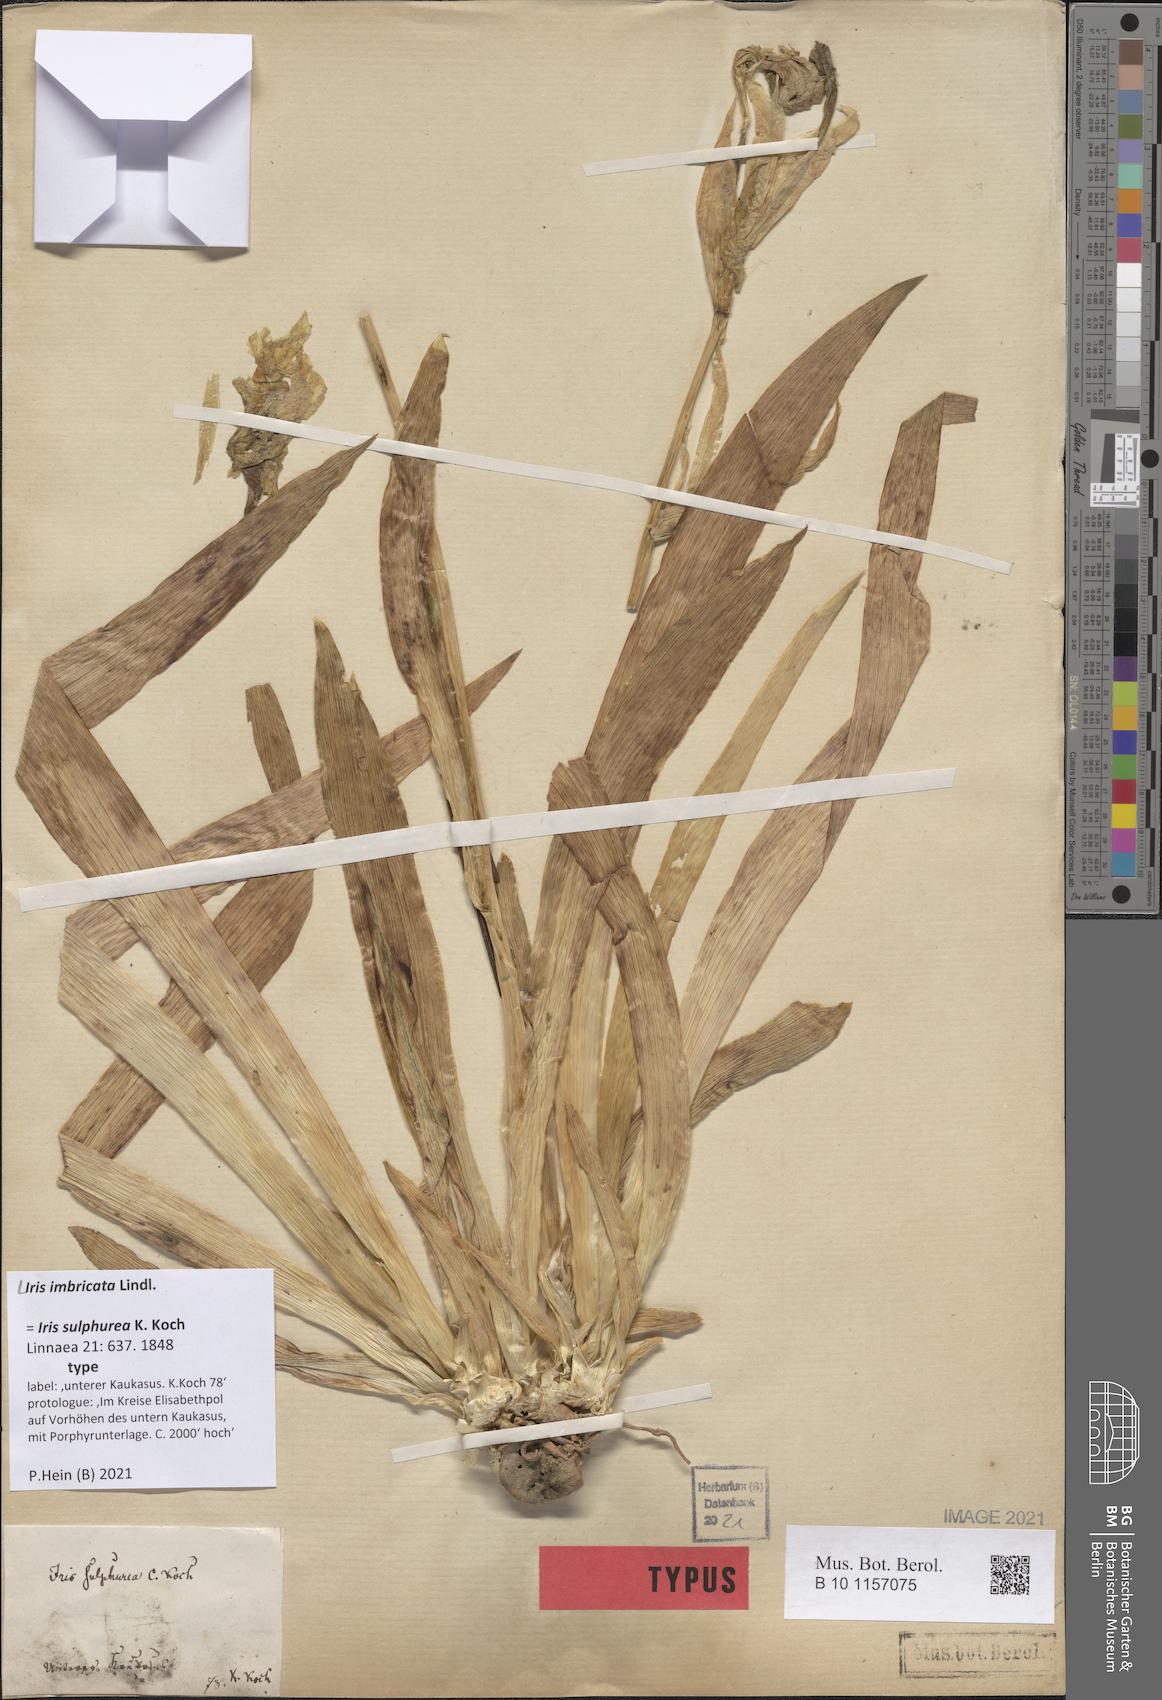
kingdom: Plantae
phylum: Tracheophyta
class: Liliopsida
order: Asparagales
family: Iridaceae
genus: Iris
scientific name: Iris imbricata
